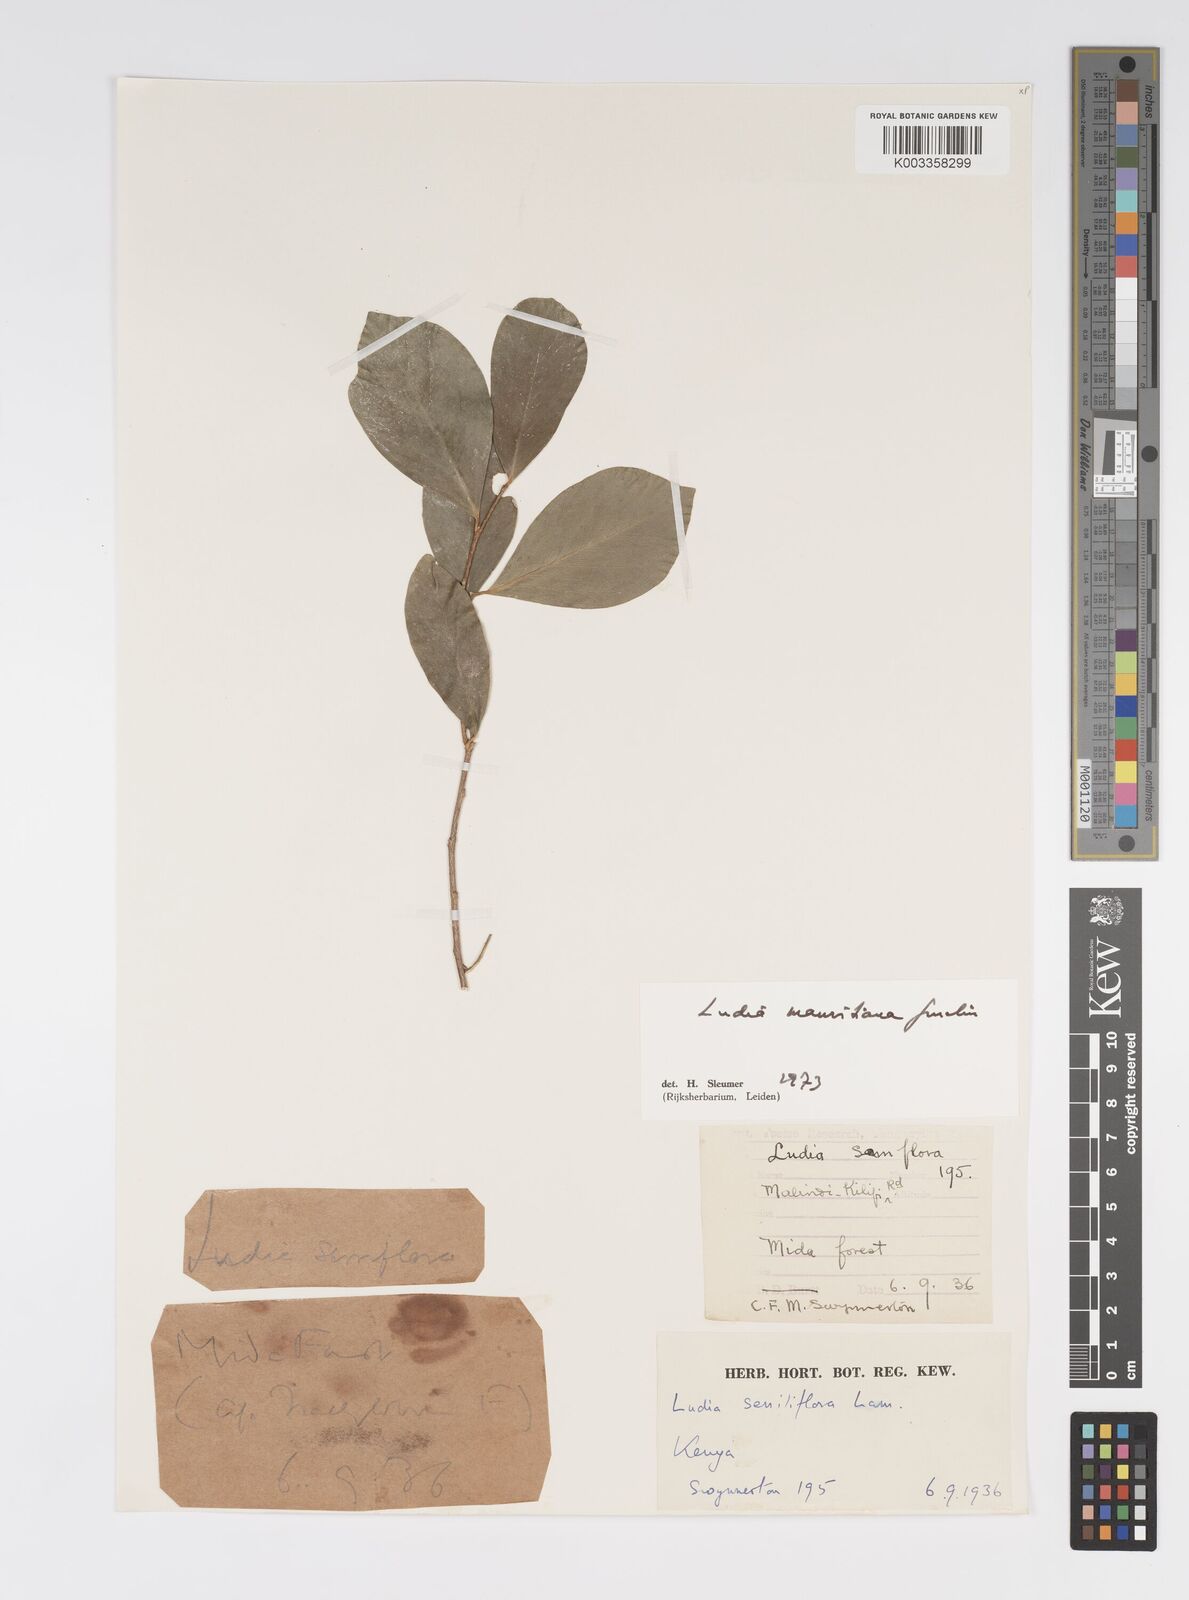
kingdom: Plantae
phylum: Tracheophyta
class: Magnoliopsida
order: Malpighiales
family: Salicaceae
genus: Ludia
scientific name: Ludia mauritiana
